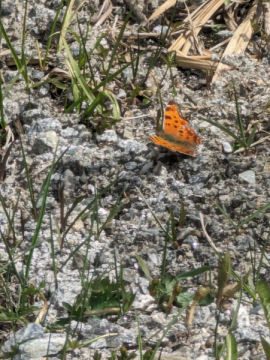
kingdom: Animalia
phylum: Arthropoda
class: Insecta
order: Lepidoptera
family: Nymphalidae
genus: Polygonia
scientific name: Polygonia comma
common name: Eastern Comma
